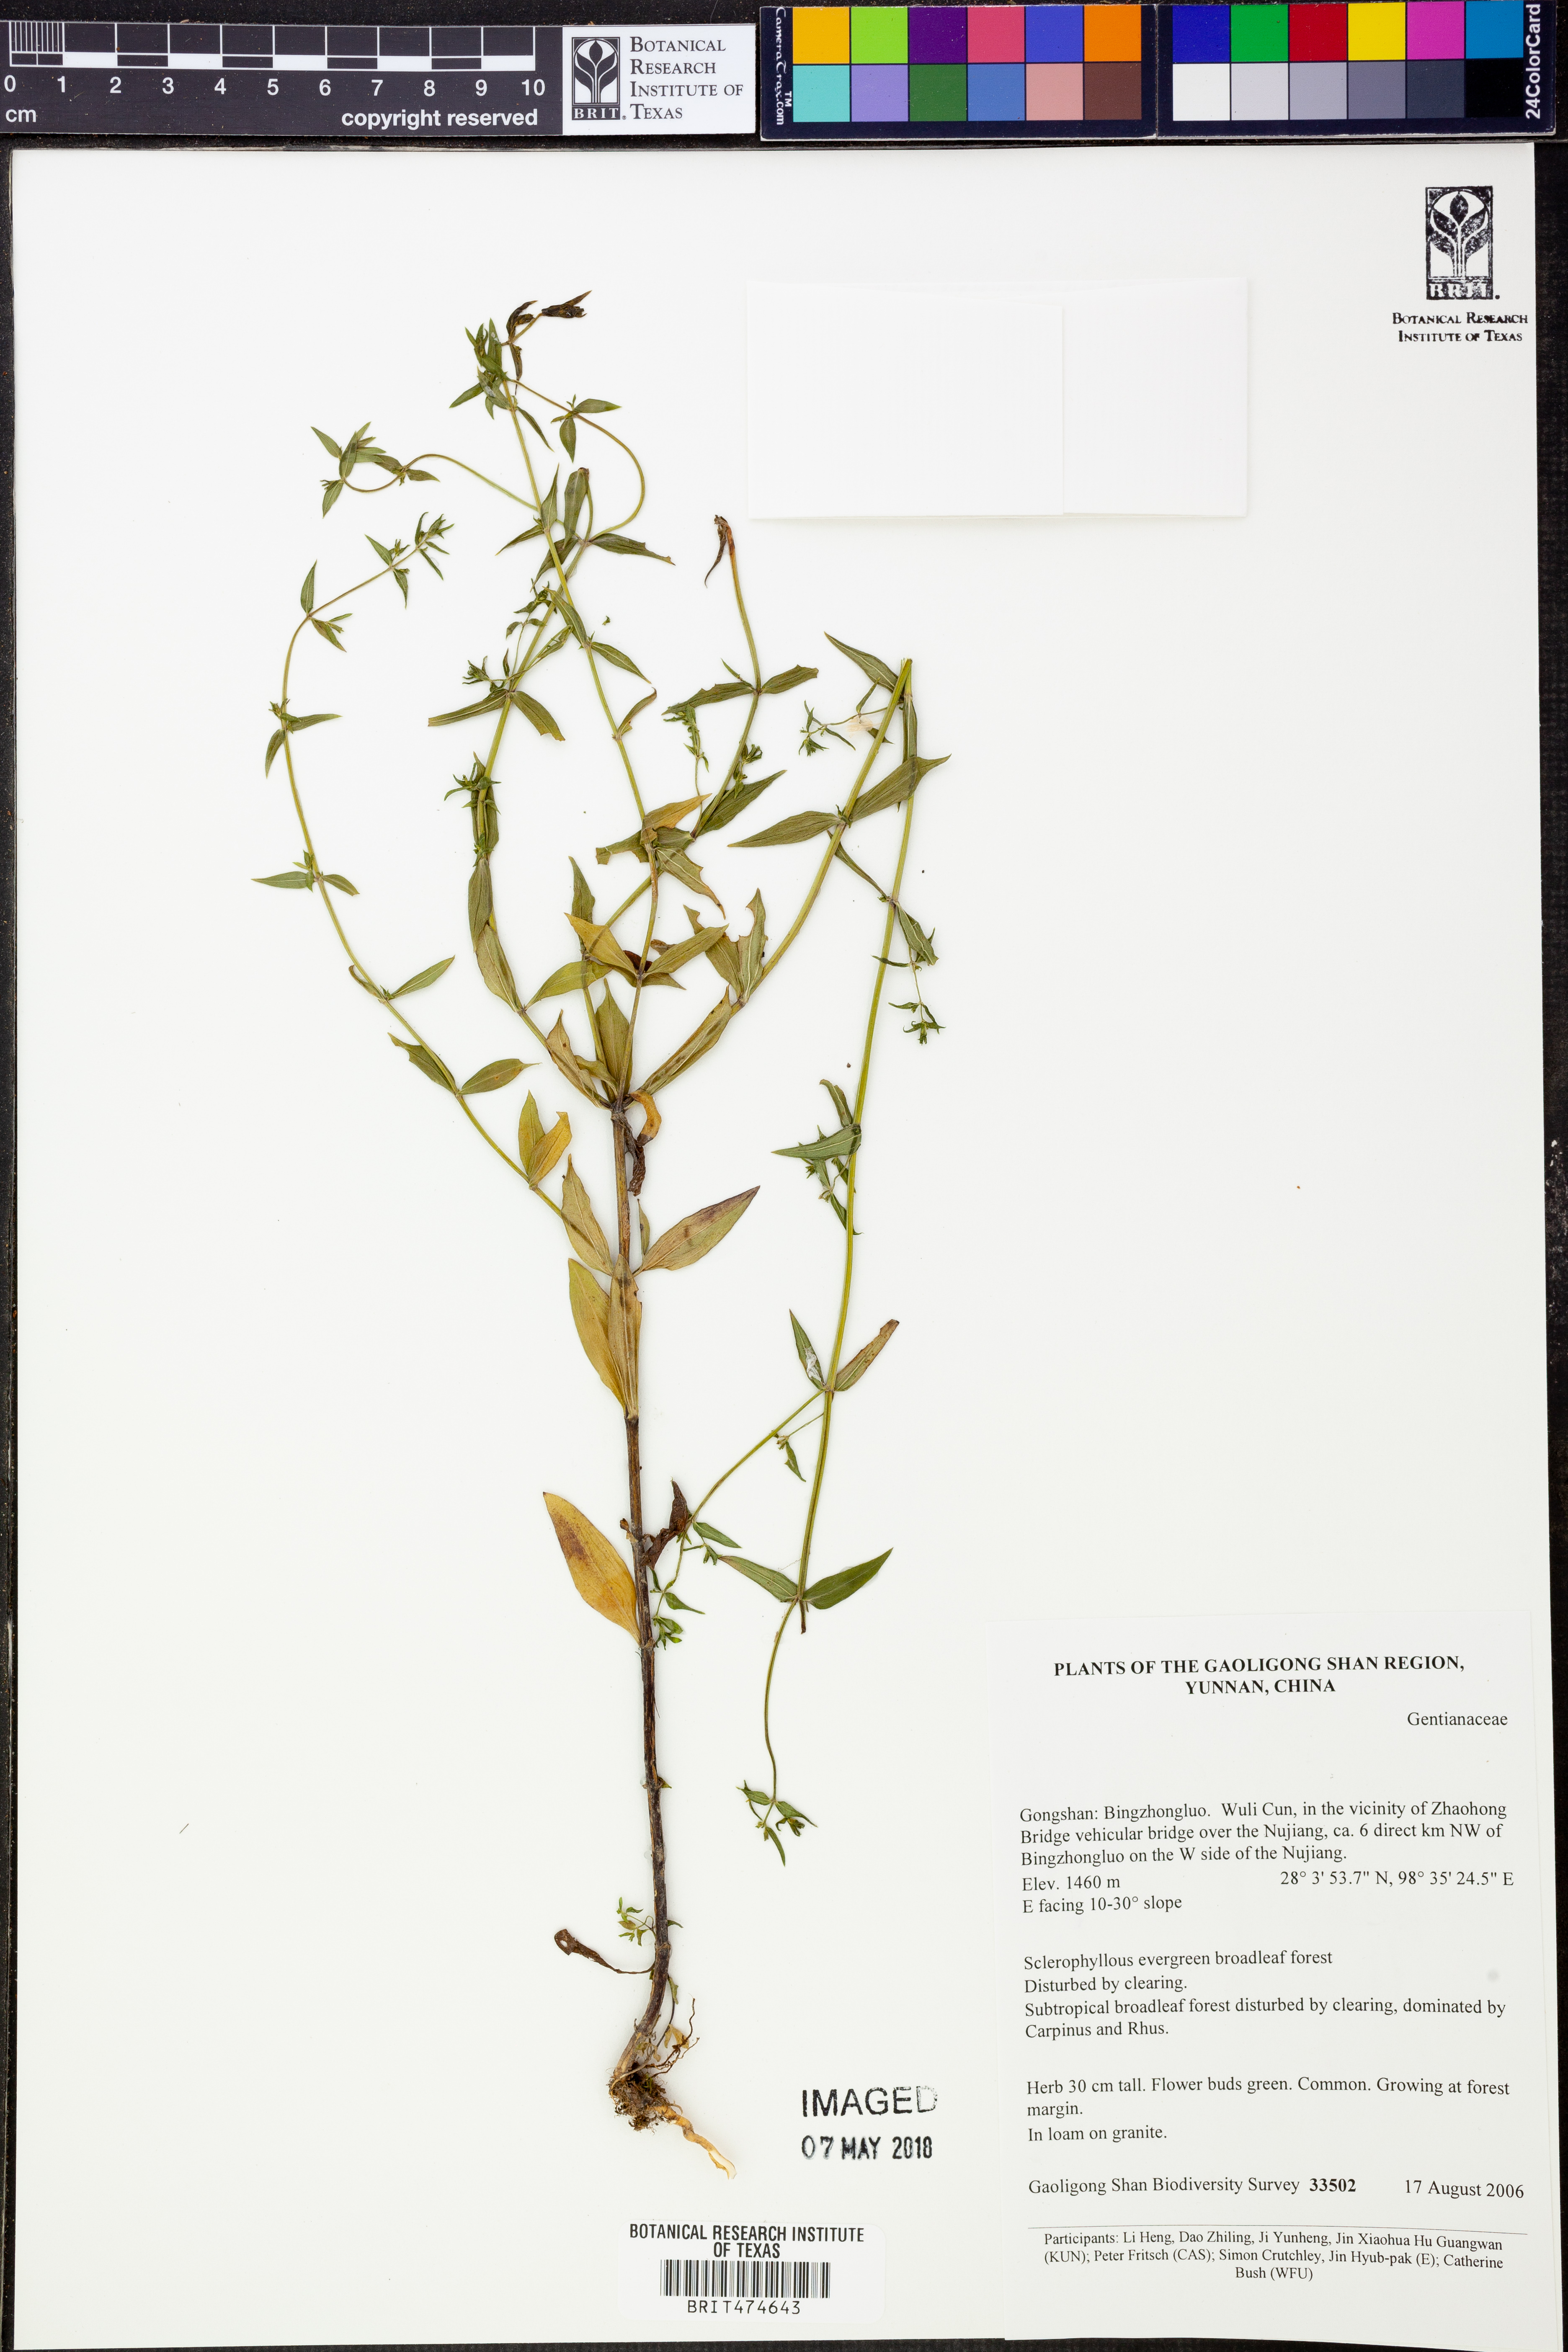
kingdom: Plantae
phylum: Tracheophyta
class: Magnoliopsida
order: Gentianales
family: Gentianaceae
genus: Swertia
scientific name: Swertia
